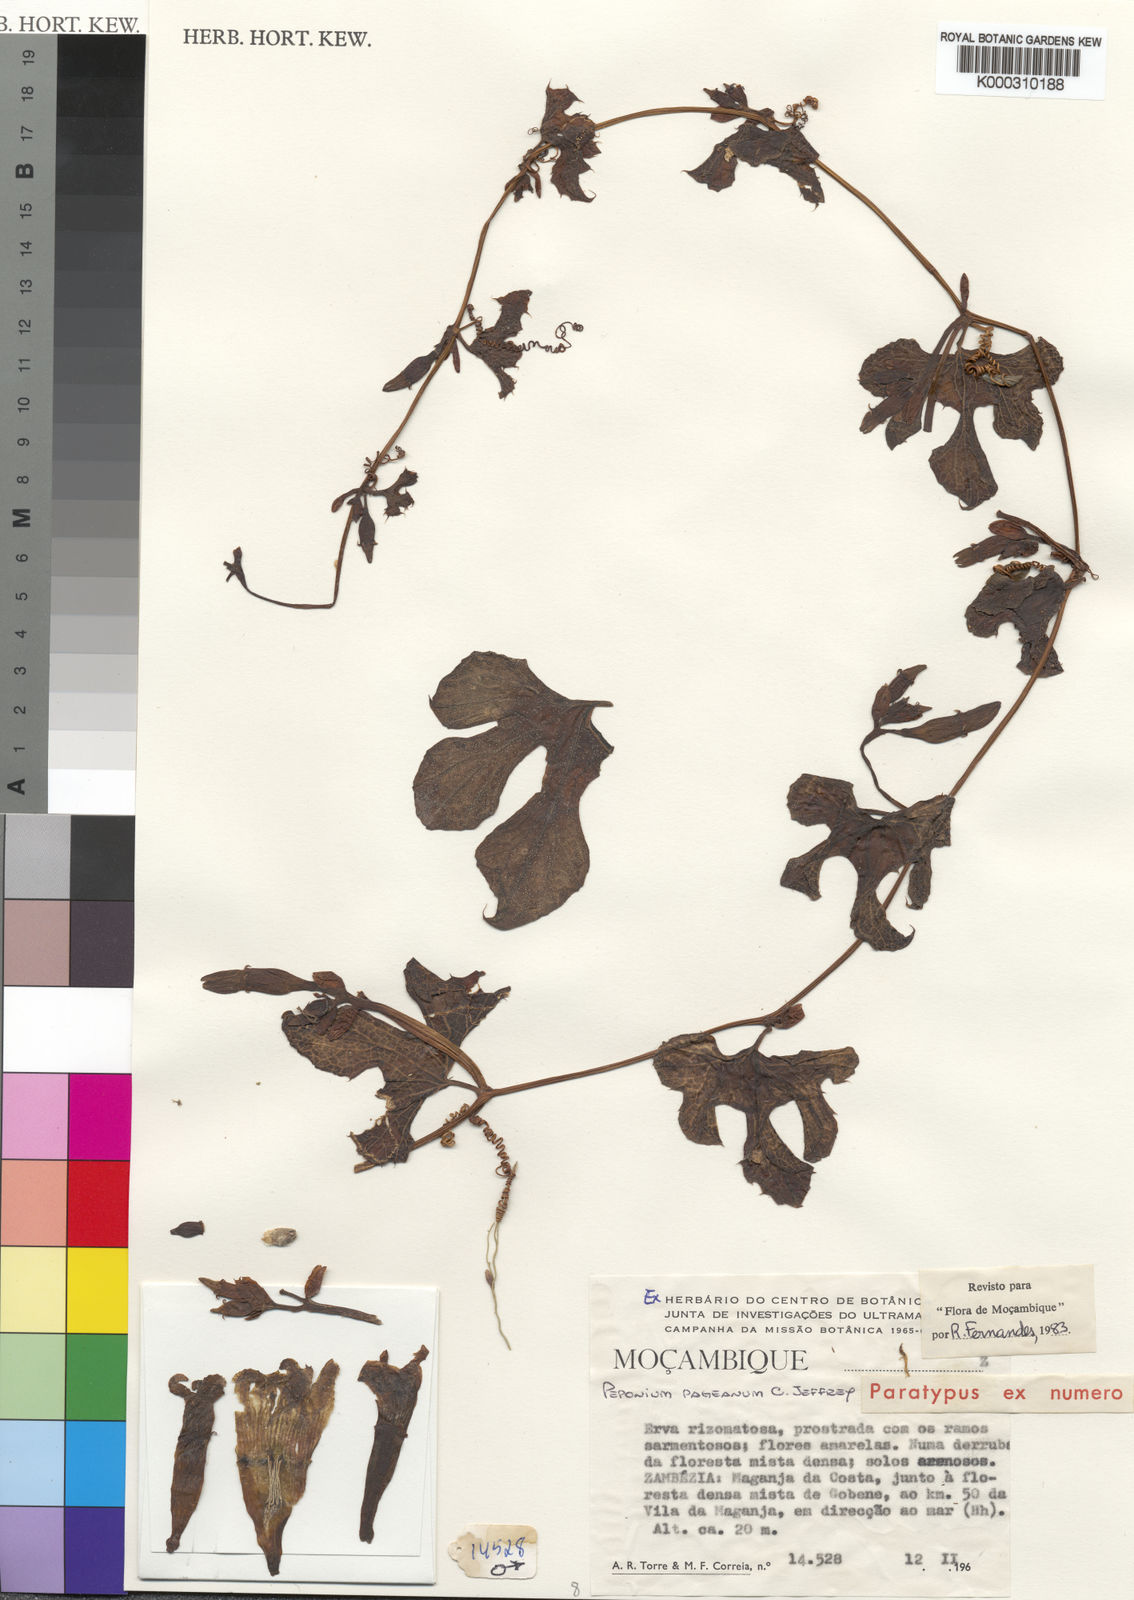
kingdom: Plantae
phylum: Tracheophyta
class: Magnoliopsida
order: Cucurbitales
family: Cucurbitaceae
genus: Peponium
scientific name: Peponium pageanum
